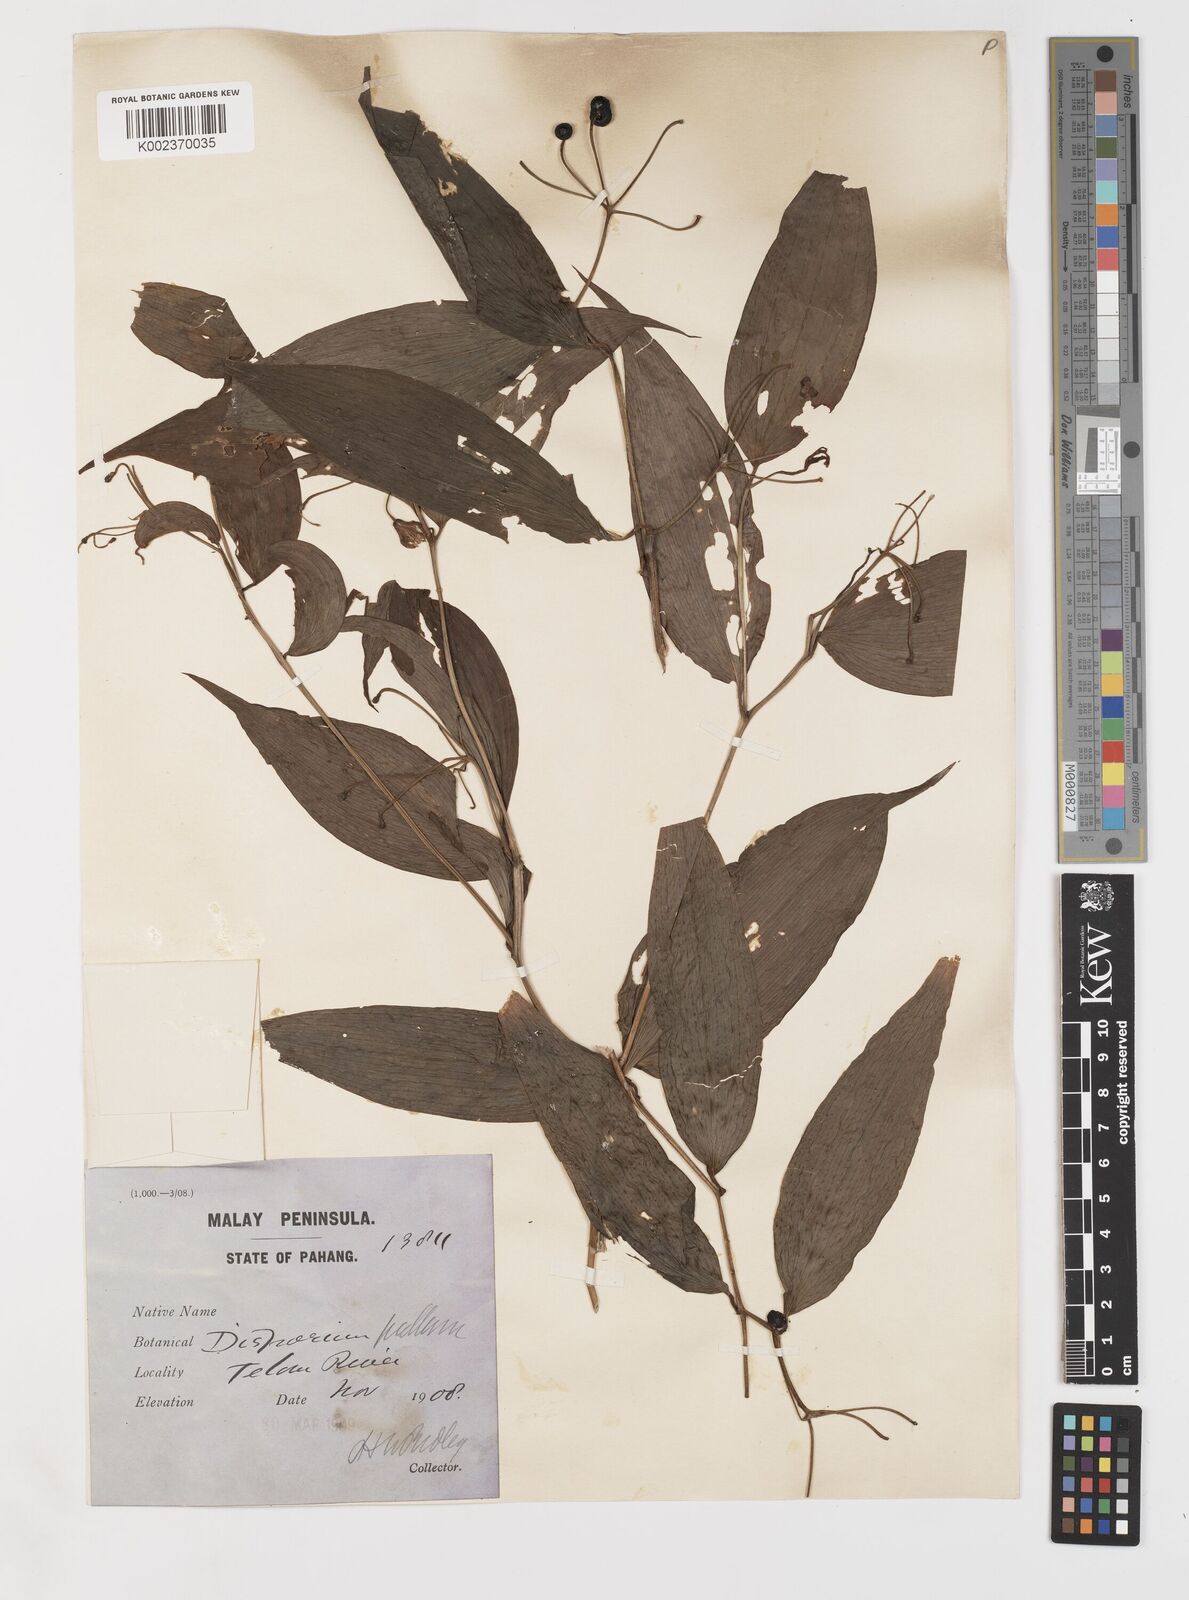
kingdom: Plantae
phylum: Tracheophyta
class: Liliopsida
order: Liliales
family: Colchicaceae
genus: Disporum
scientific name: Disporum cantoniense
